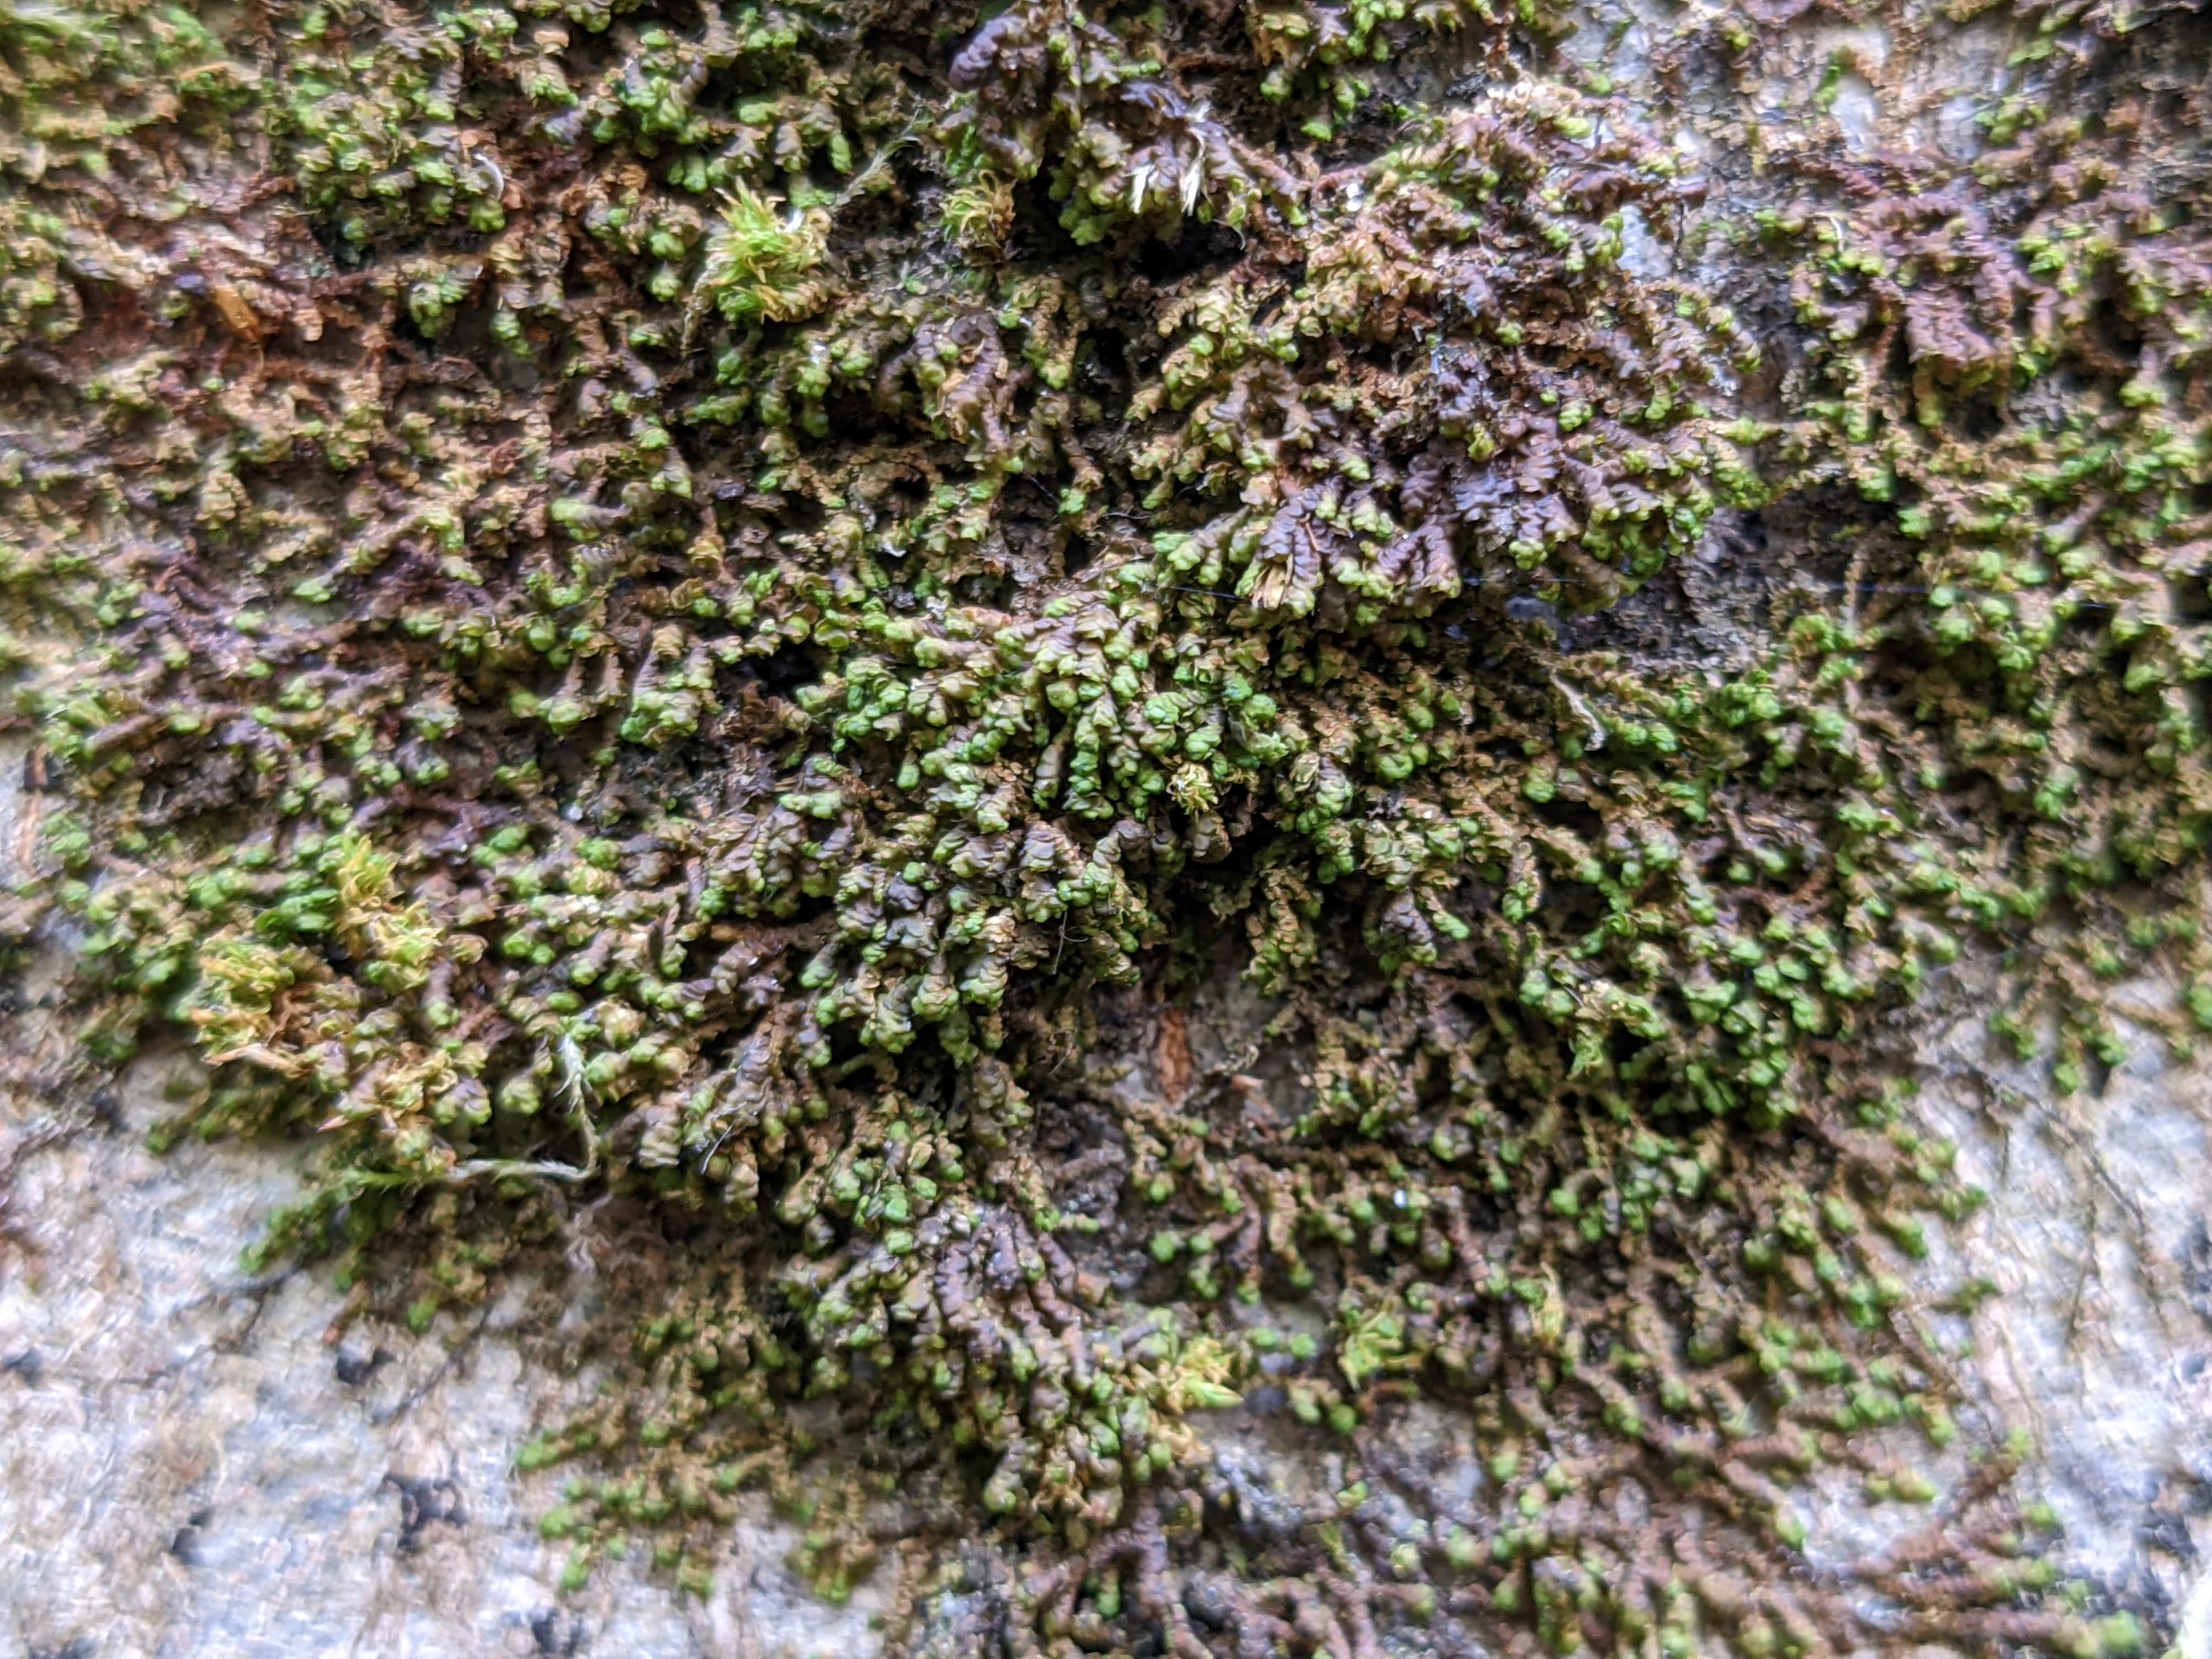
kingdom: Plantae
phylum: Marchantiophyta
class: Jungermanniopsida
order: Porellales
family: Frullaniaceae
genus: Frullania
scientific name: Frullania dilatata
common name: Mat bronzemos
